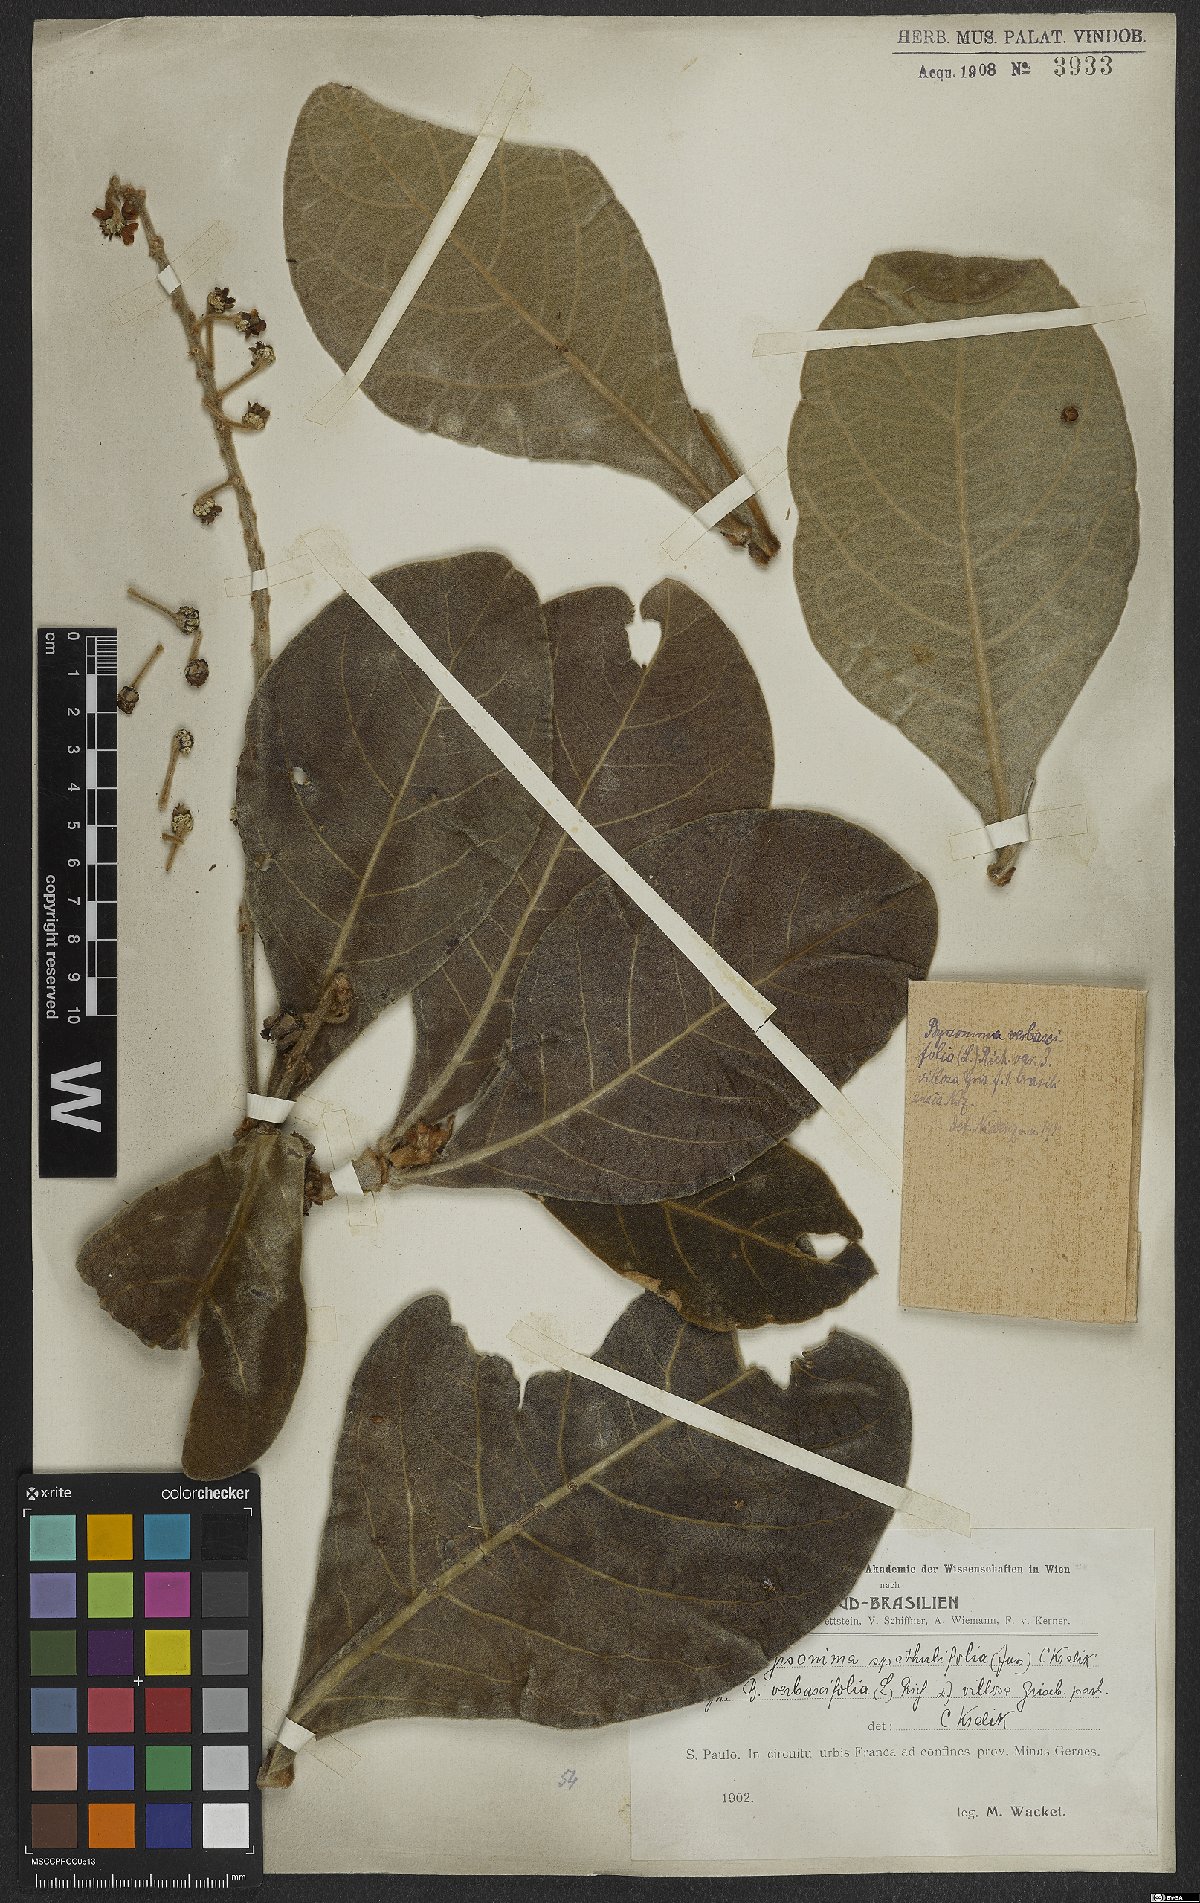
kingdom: Plantae
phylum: Tracheophyta
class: Magnoliopsida
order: Malpighiales
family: Malpighiaceae
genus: Byrsonima
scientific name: Byrsonima verbascifolia
